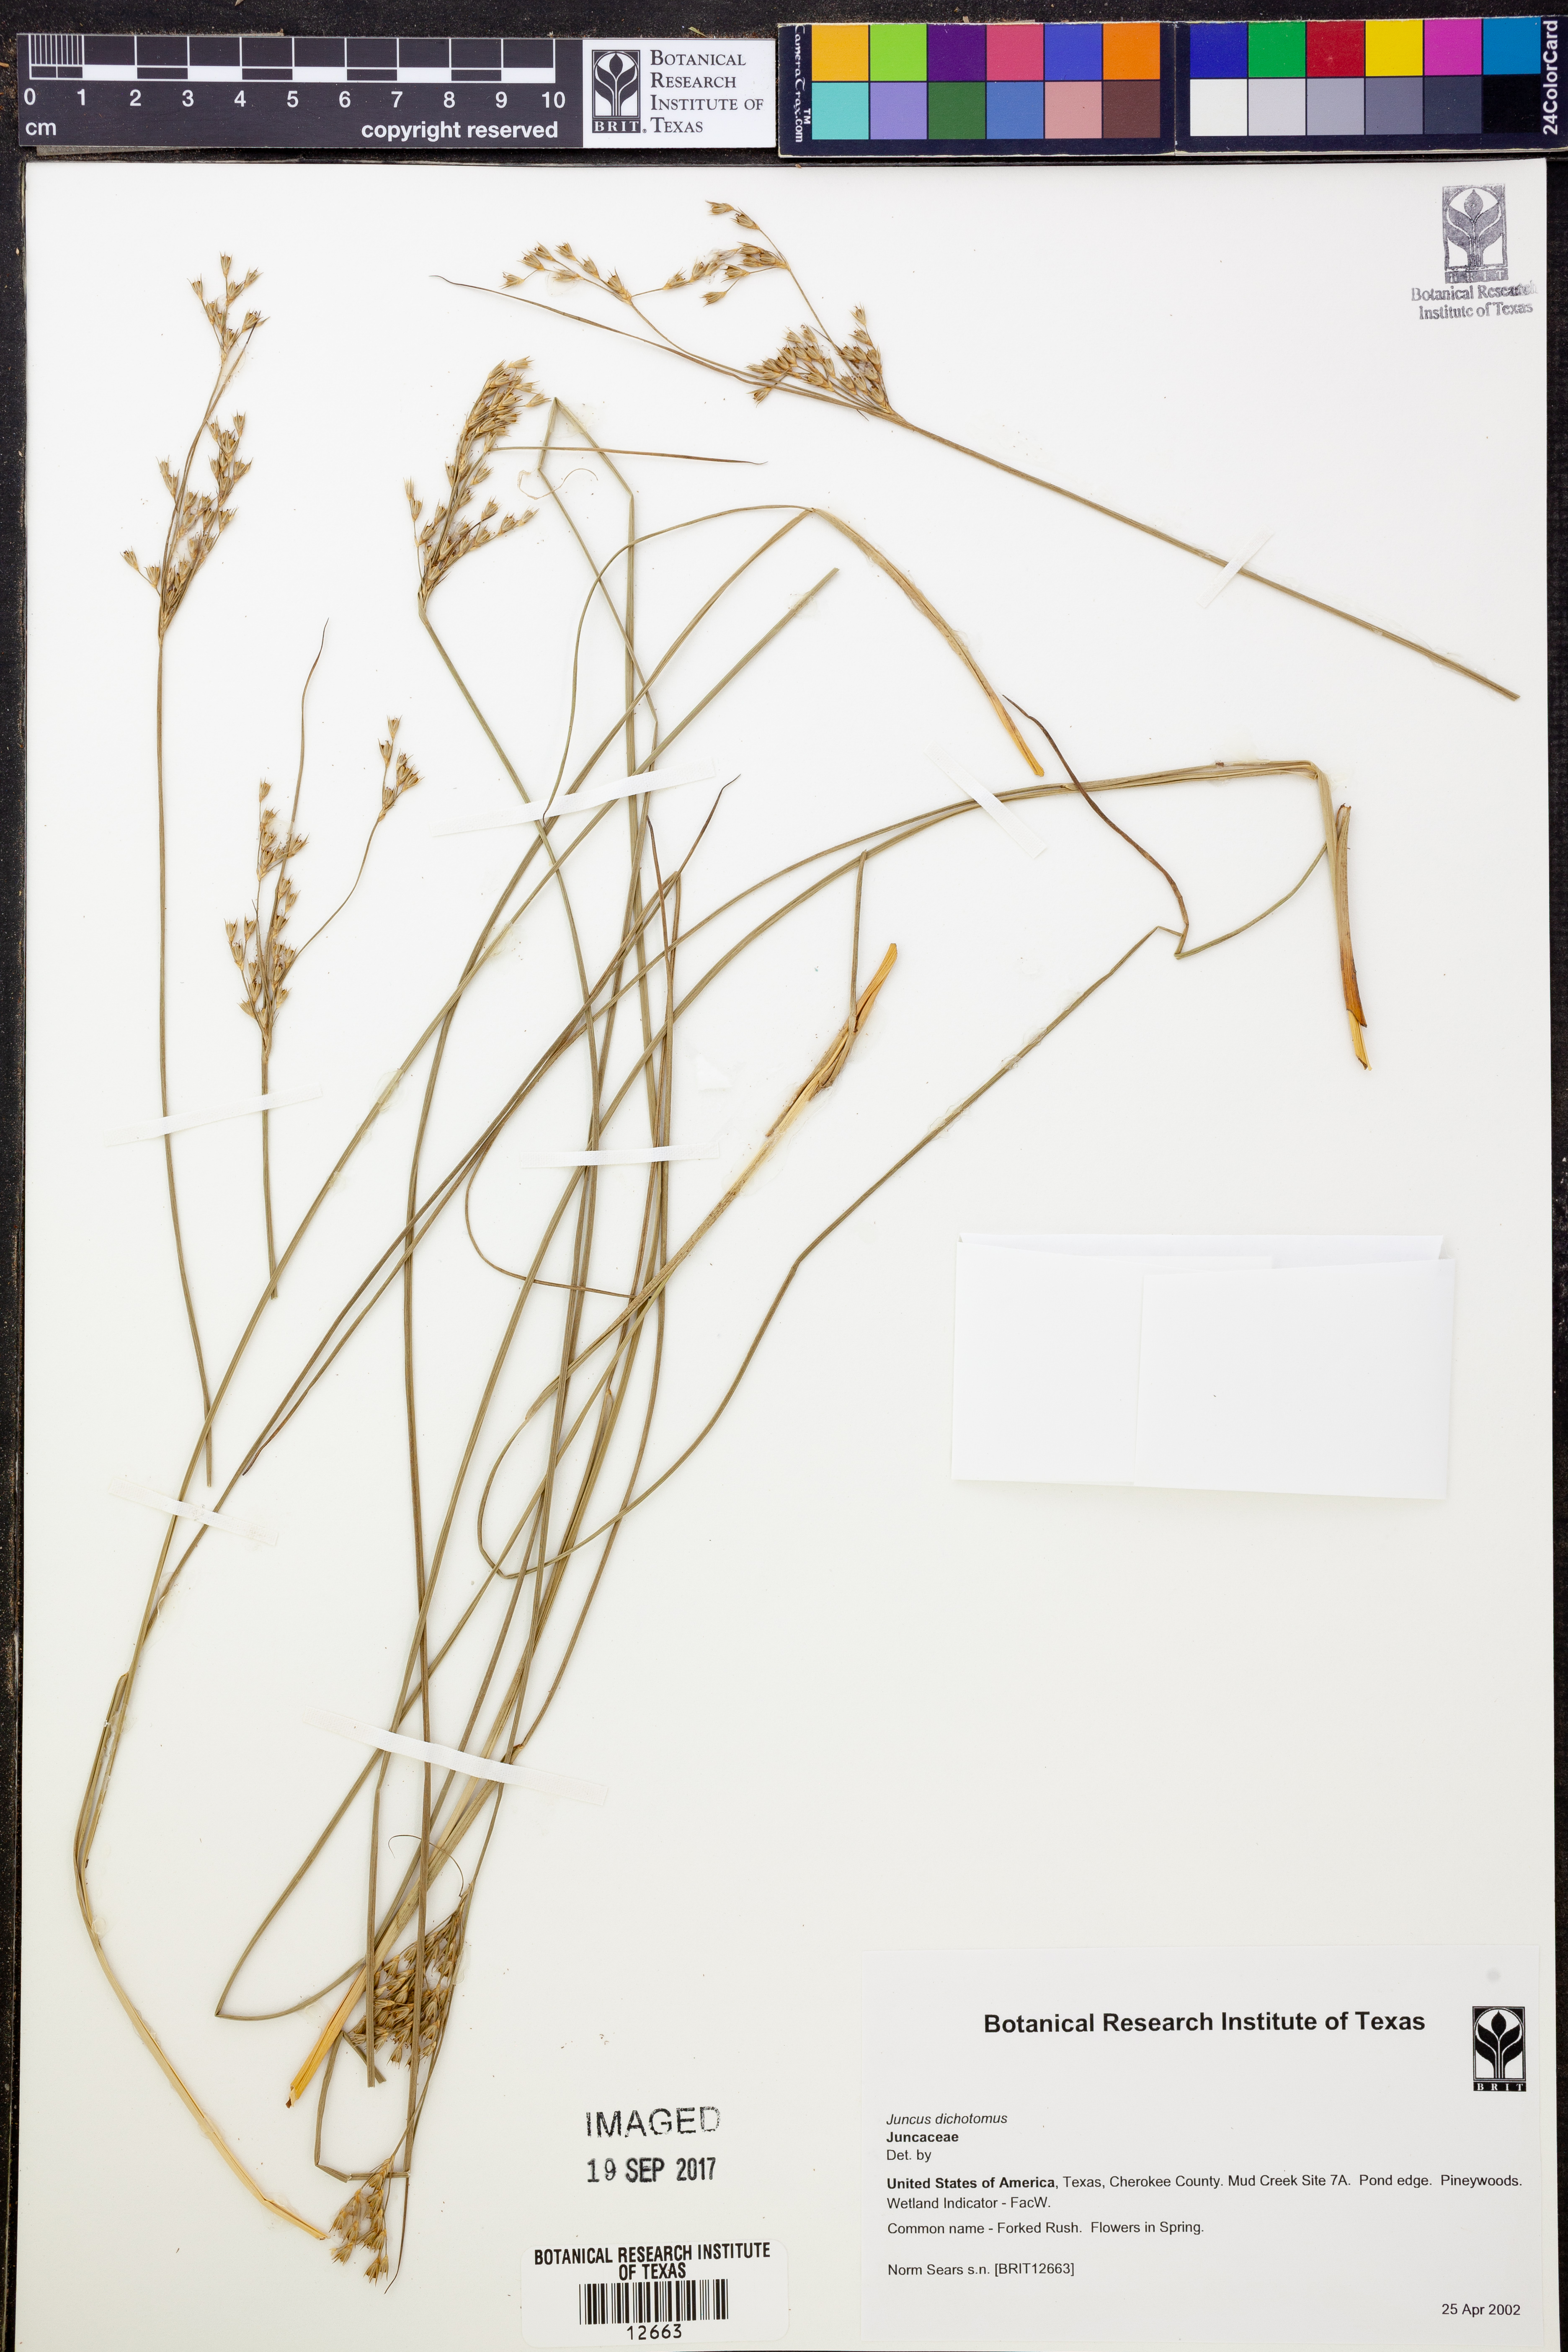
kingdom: Plantae
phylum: Tracheophyta
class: Liliopsida
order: Poales
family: Juncaceae
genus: Juncus
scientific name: Juncus dichotomus
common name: Forked rush
